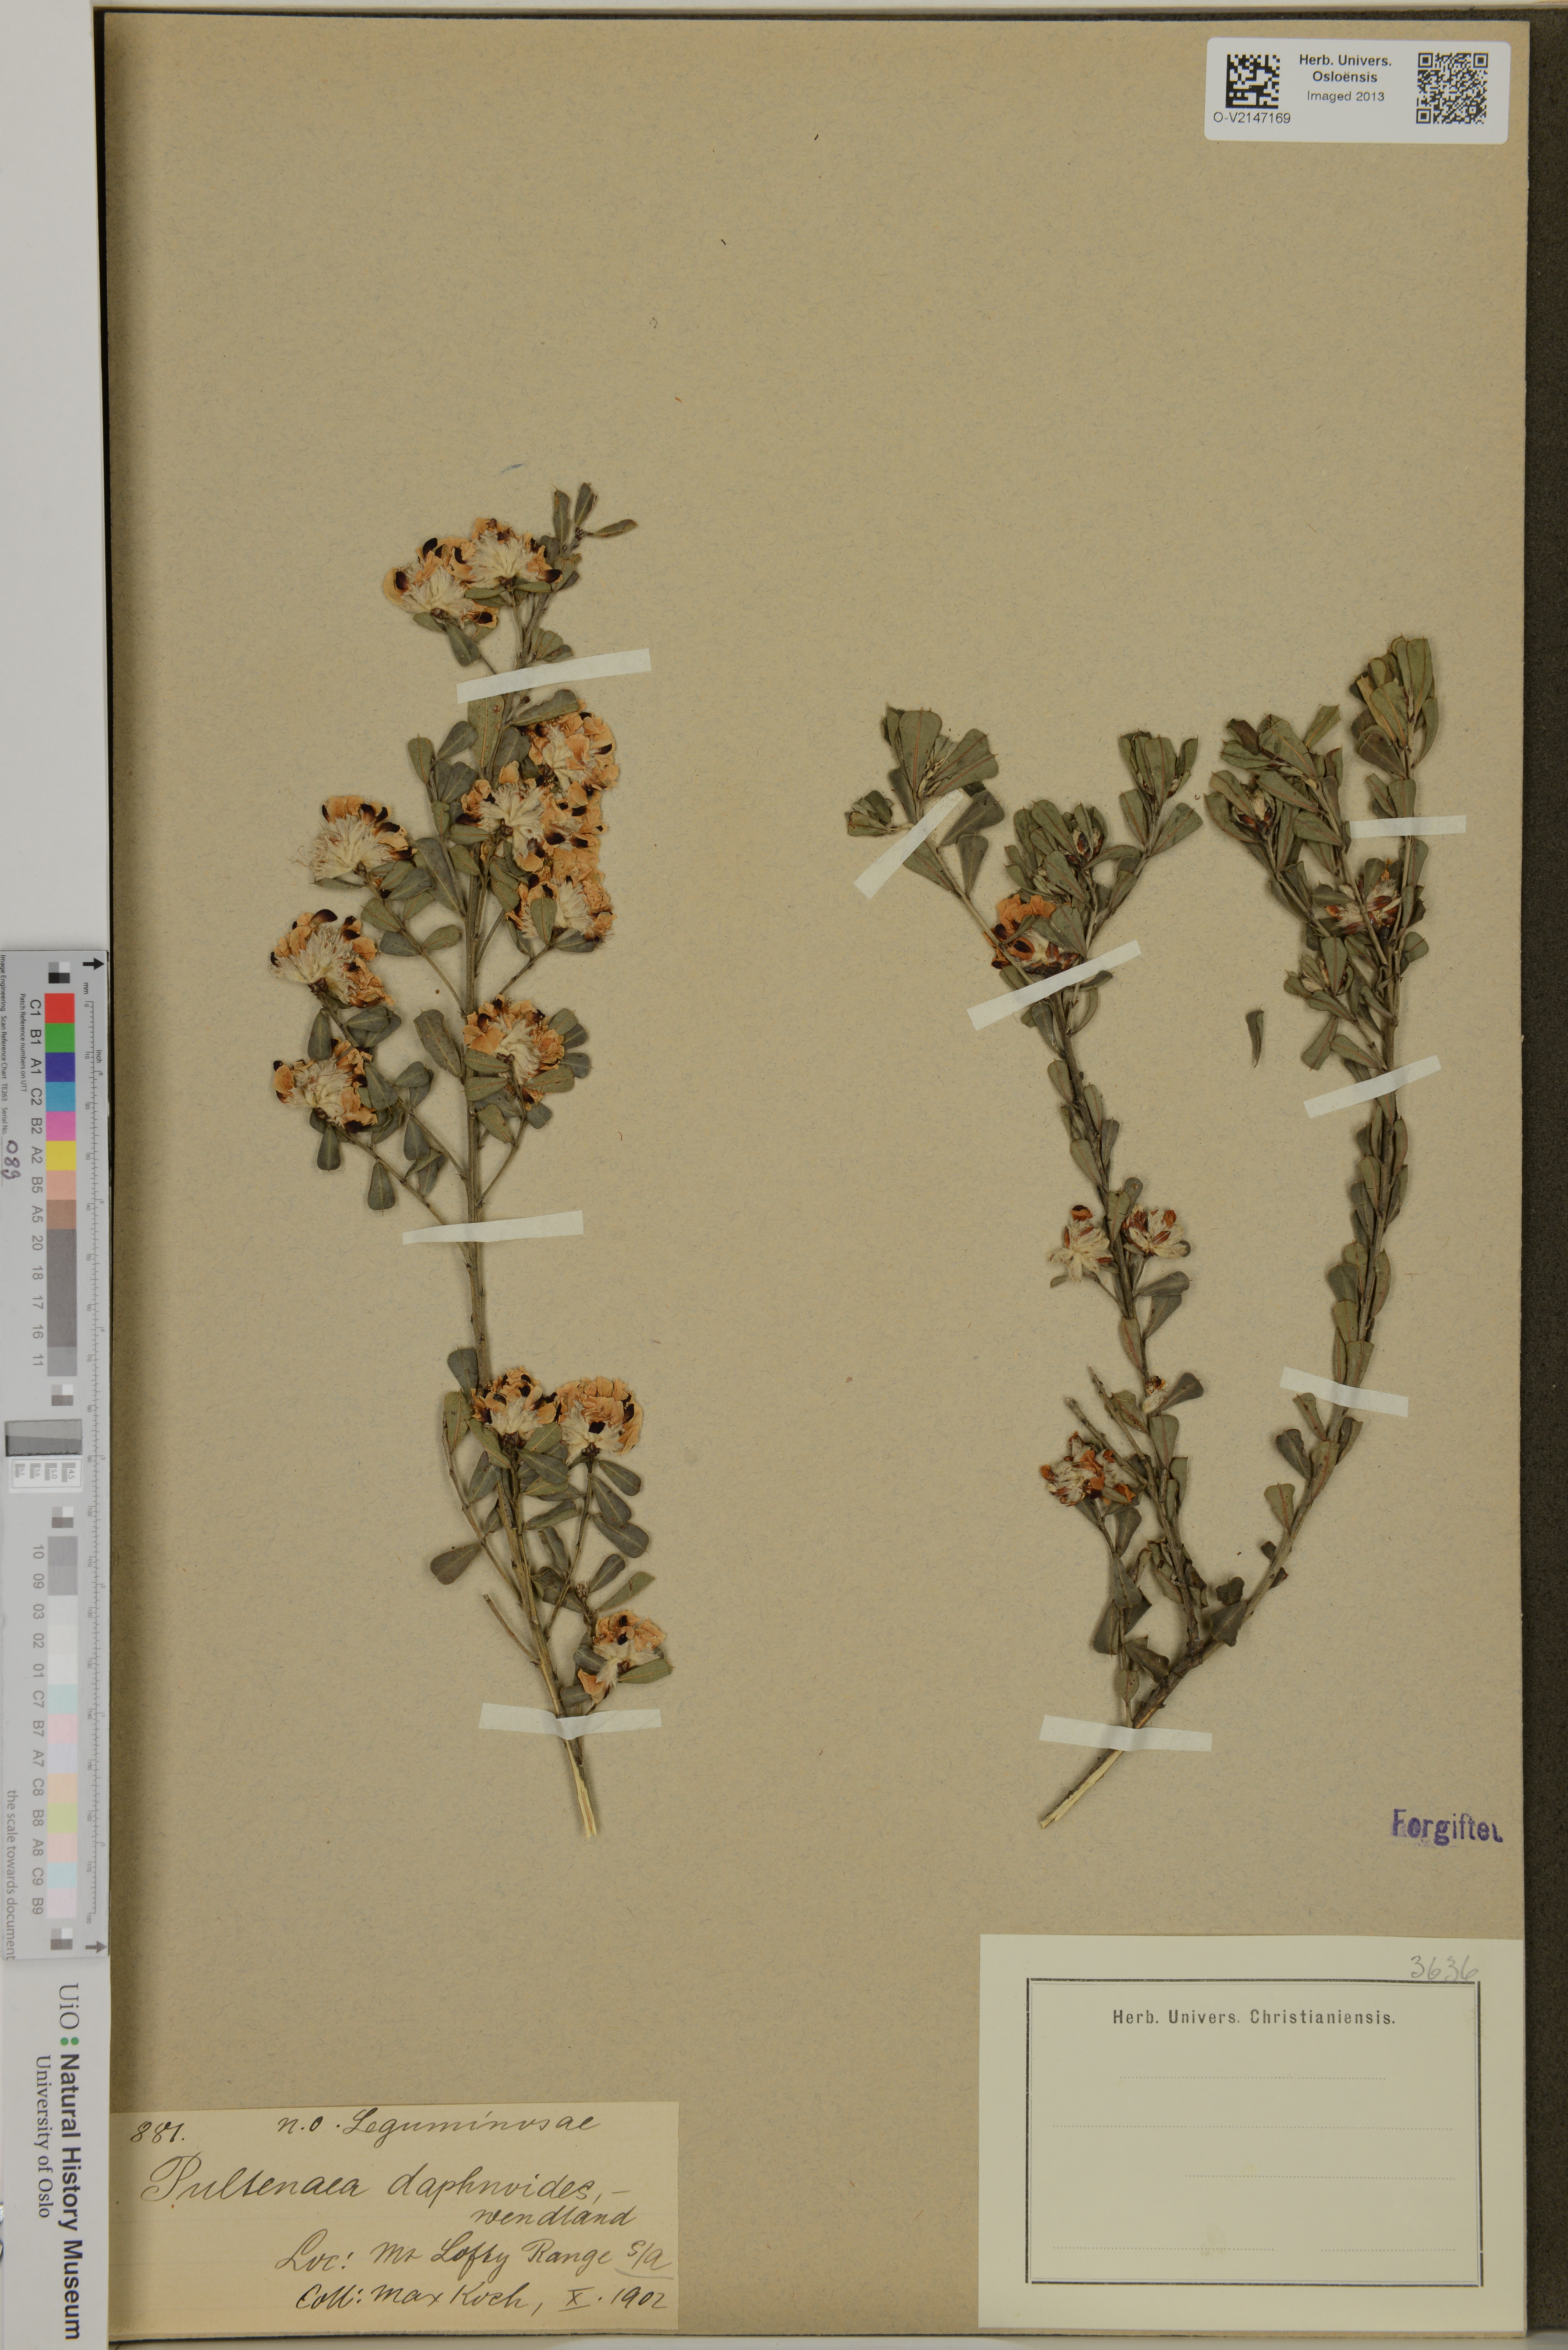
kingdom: Plantae
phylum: Tracheophyta
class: Magnoliopsida
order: Fabales
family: Fabaceae
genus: Pultenaea
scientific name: Pultenaea daphnoides
